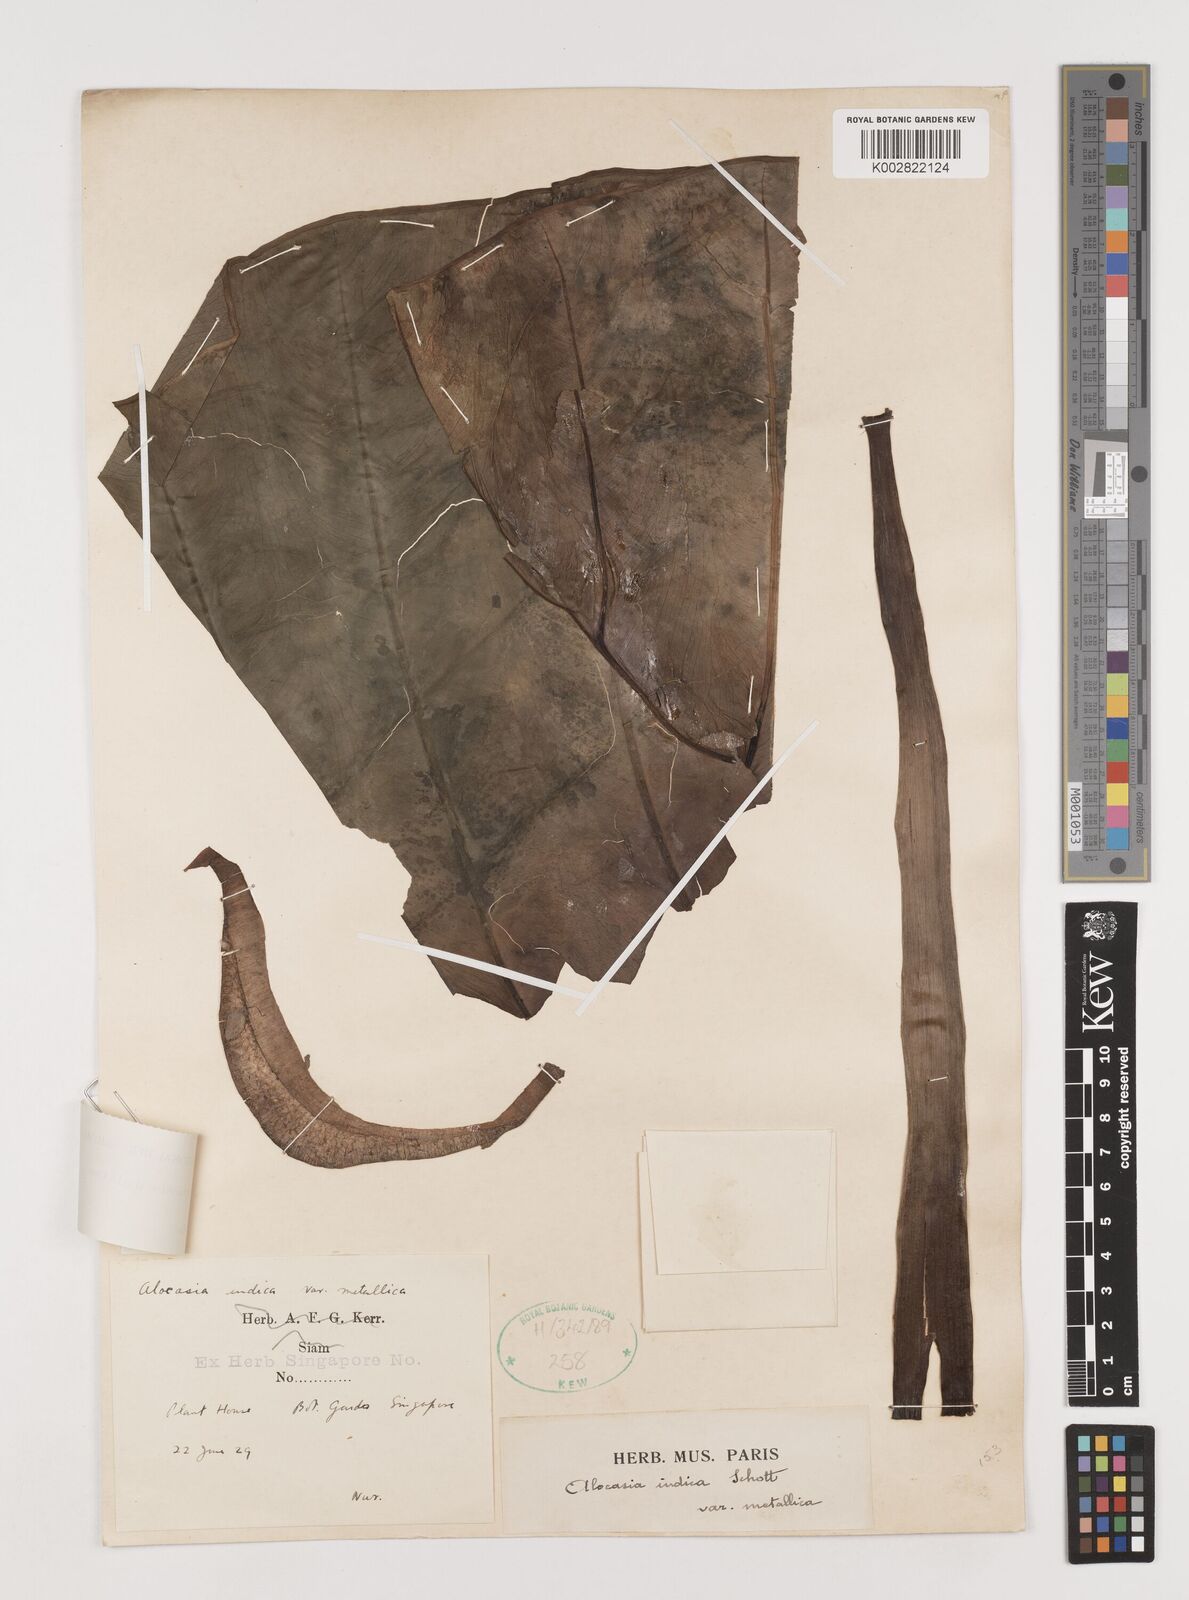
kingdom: Plantae
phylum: Tracheophyta
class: Liliopsida
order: Alismatales
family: Araceae
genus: Alocasia
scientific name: Alocasia macrorrhizos
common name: Giant taro
